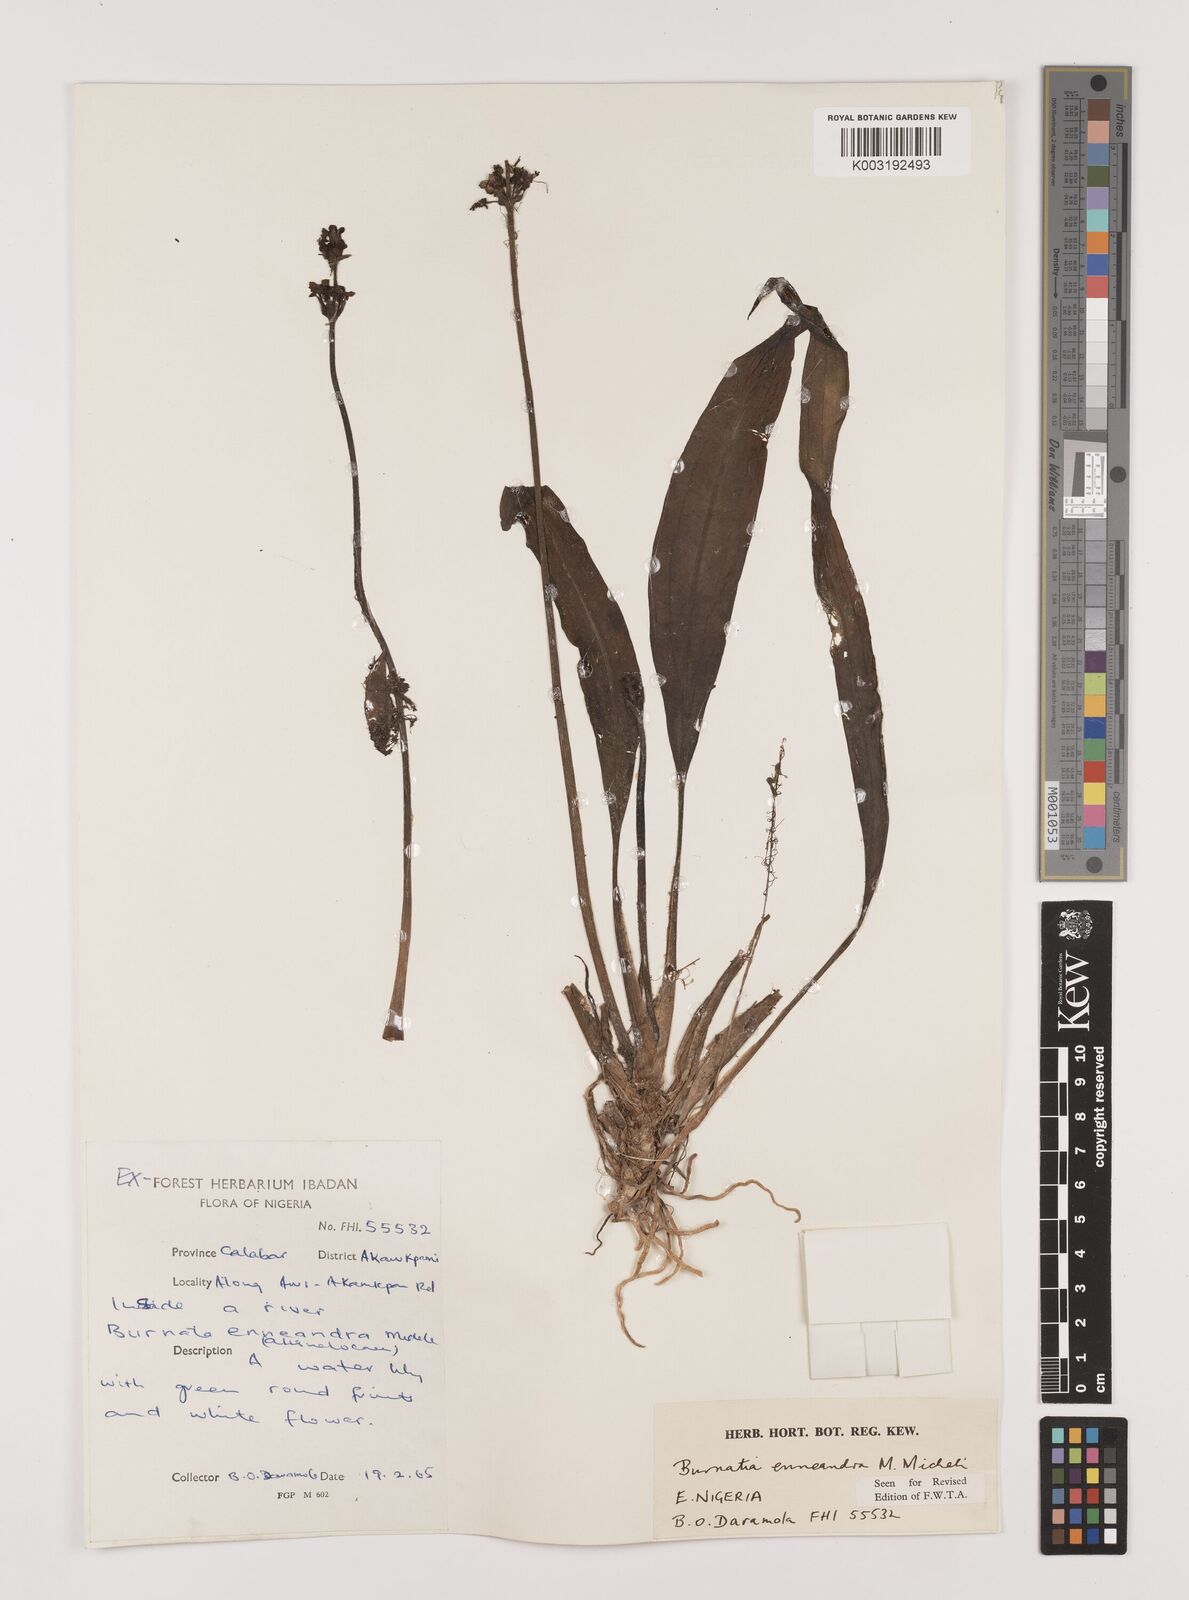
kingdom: Plantae
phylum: Tracheophyta
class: Liliopsida
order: Alismatales
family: Alismataceae
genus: Burnatia
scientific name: Burnatia enneandra
